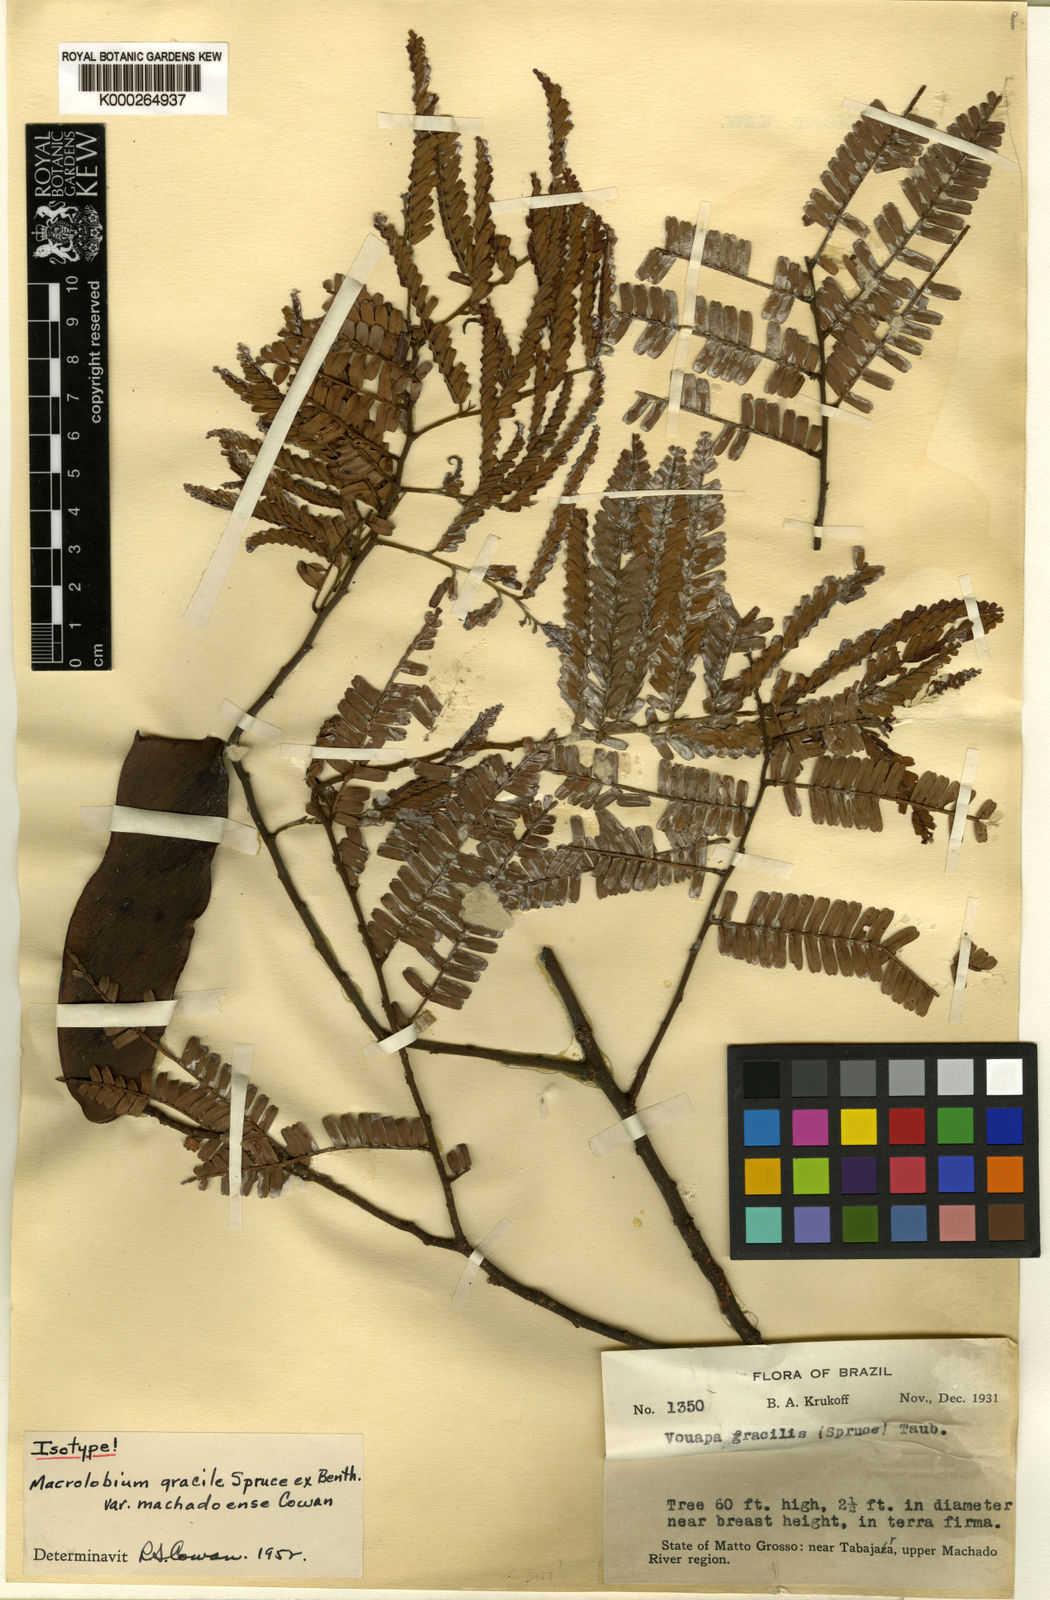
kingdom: Plantae
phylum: Tracheophyta
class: Magnoliopsida
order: Fabales
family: Fabaceae
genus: Macrolobium
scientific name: Macrolobium gracile
